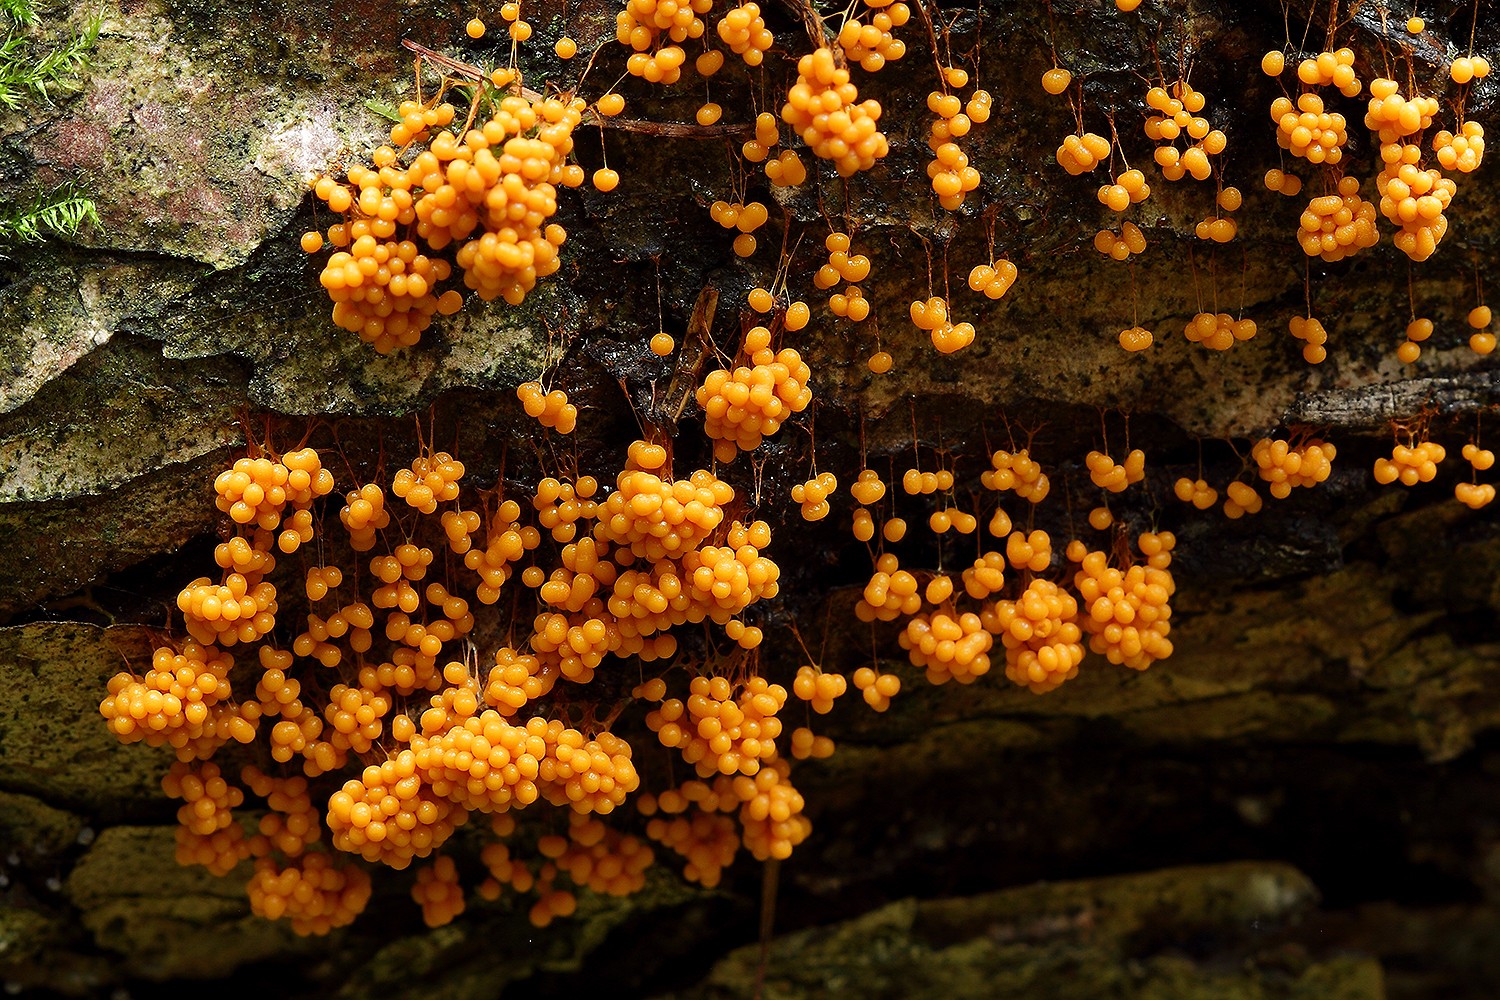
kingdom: Protozoa
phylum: Mycetozoa
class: Myxomycetes
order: Physarales
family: Physaraceae
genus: Badhamia
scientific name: Badhamia utricularis
